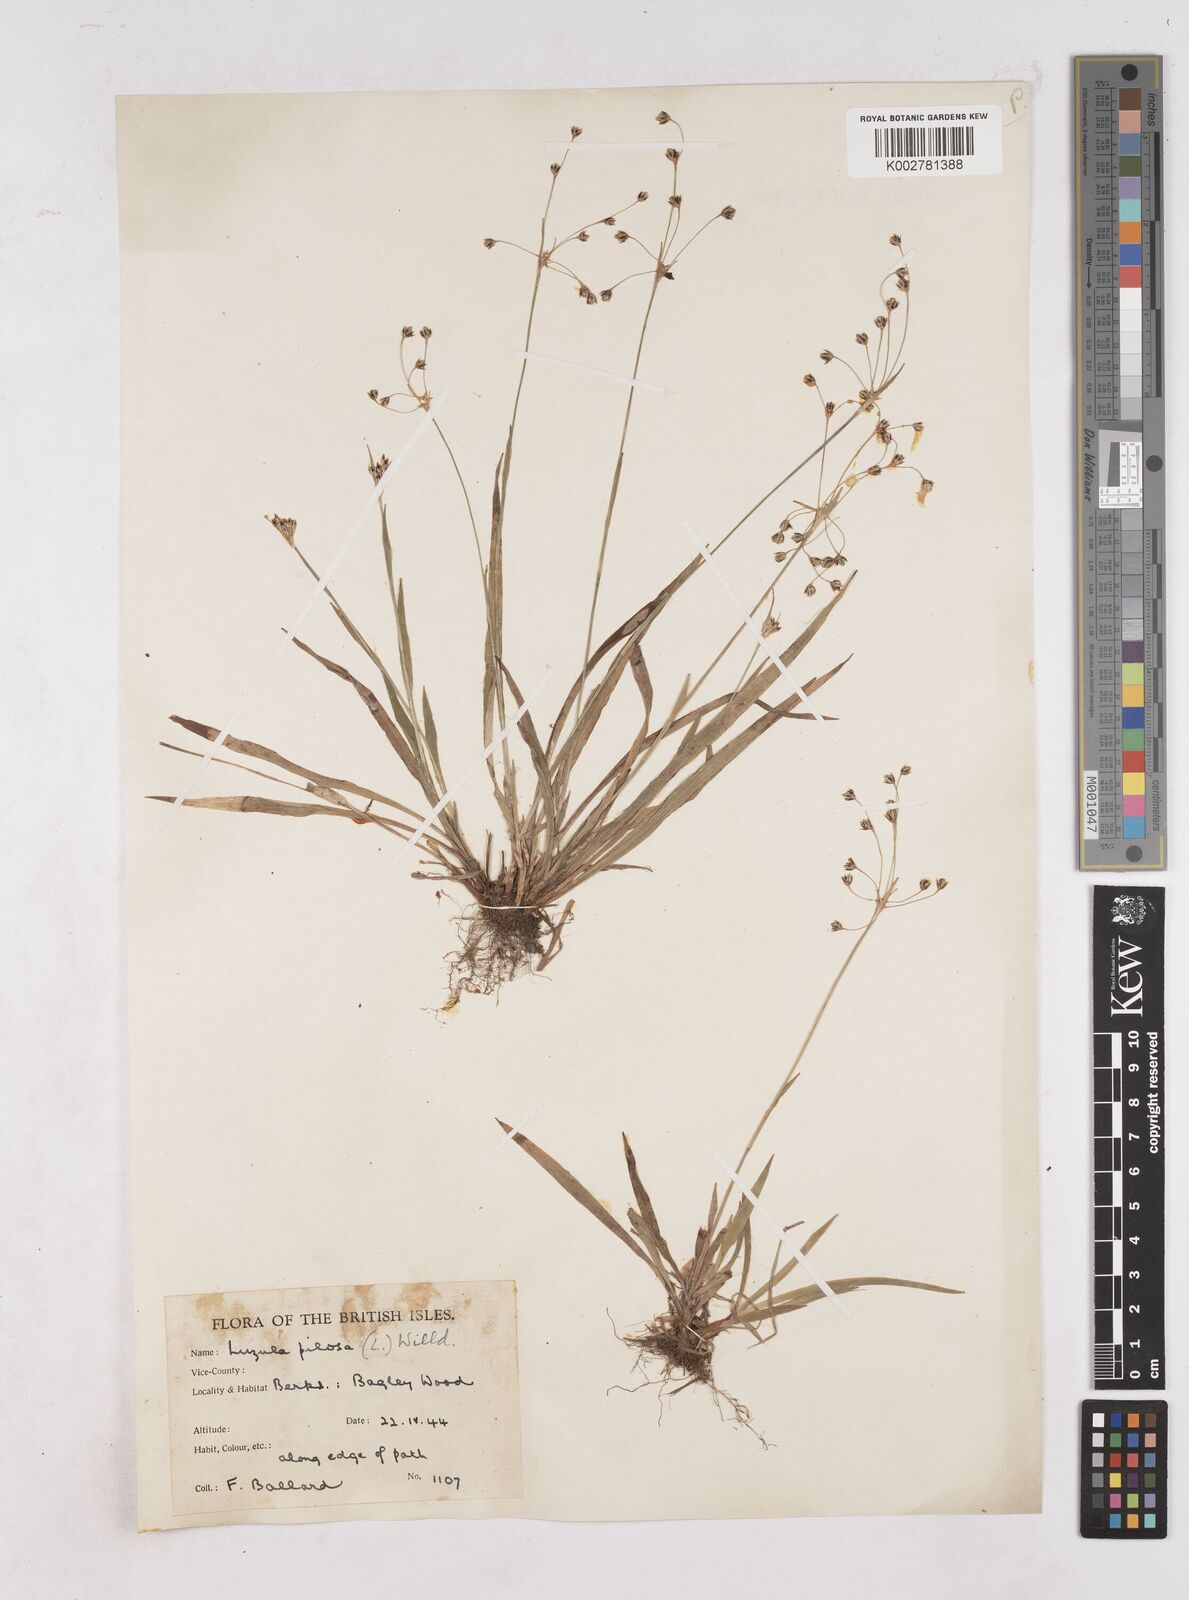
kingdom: Plantae
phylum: Tracheophyta
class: Liliopsida
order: Poales
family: Juncaceae
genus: Luzula
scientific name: Luzula pilosa
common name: Hairy wood-rush
